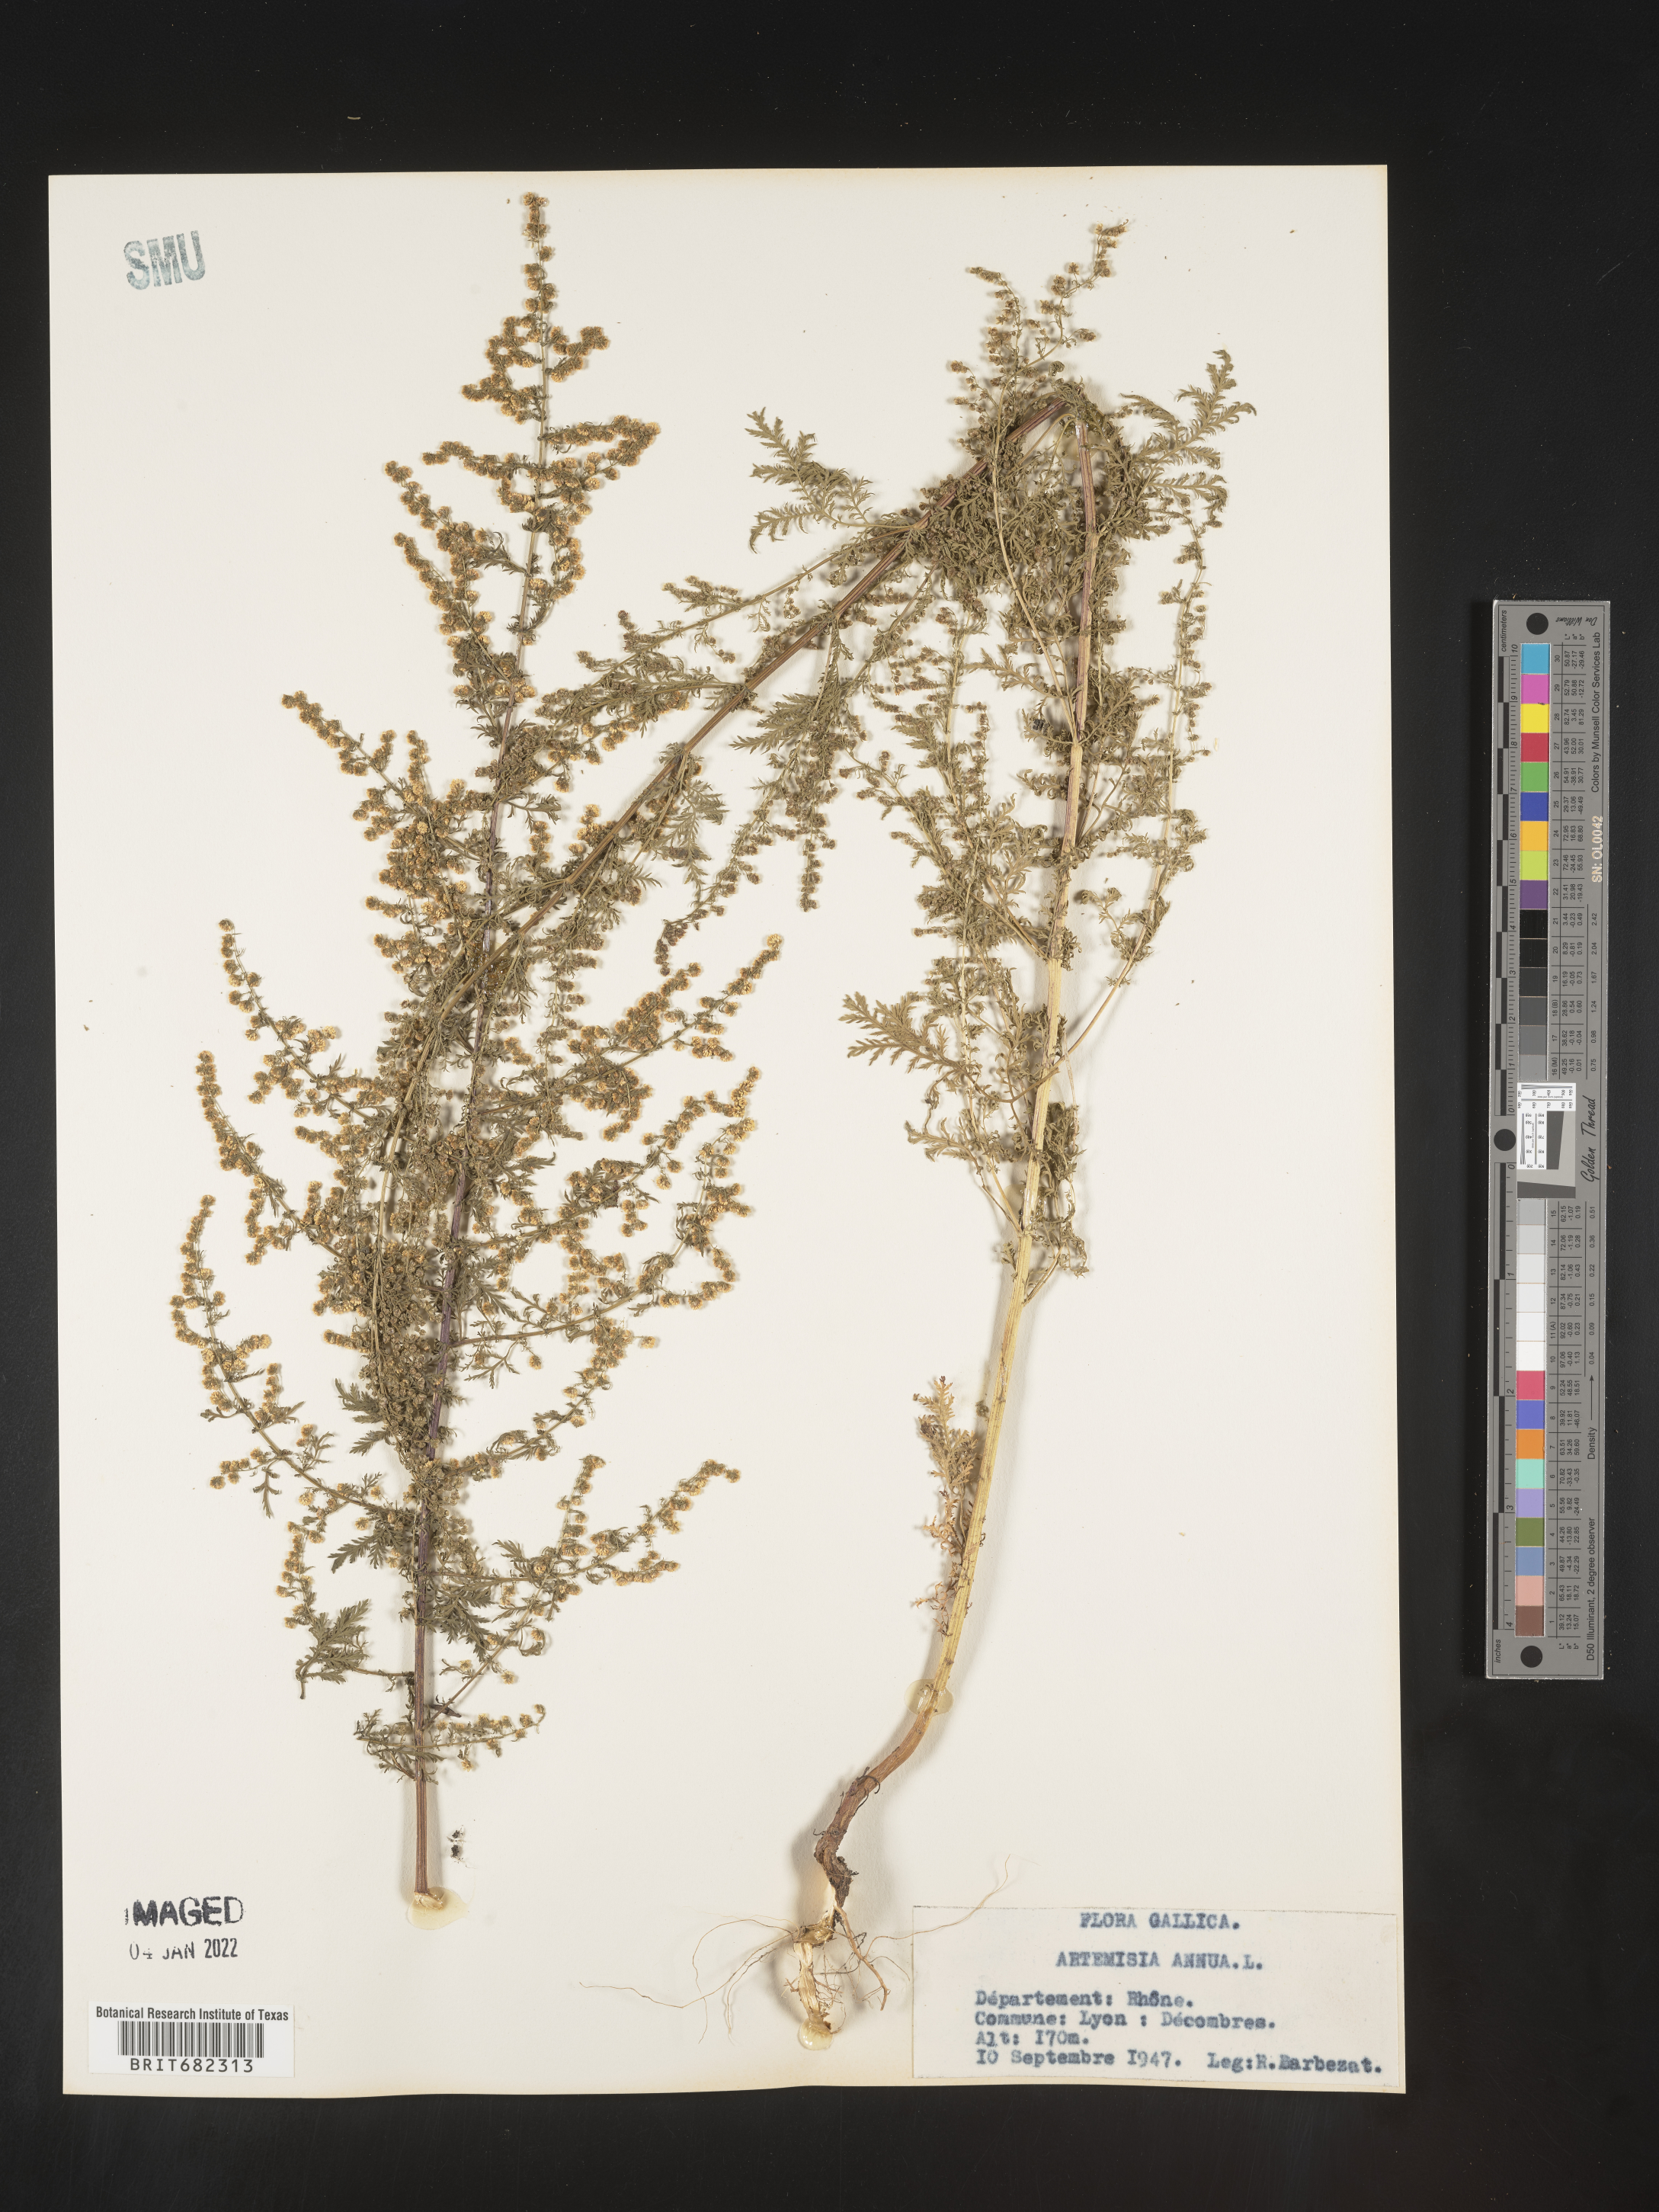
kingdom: Plantae
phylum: Tracheophyta
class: Magnoliopsida
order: Asterales
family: Asteraceae
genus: Artemisia
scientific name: Artemisia
